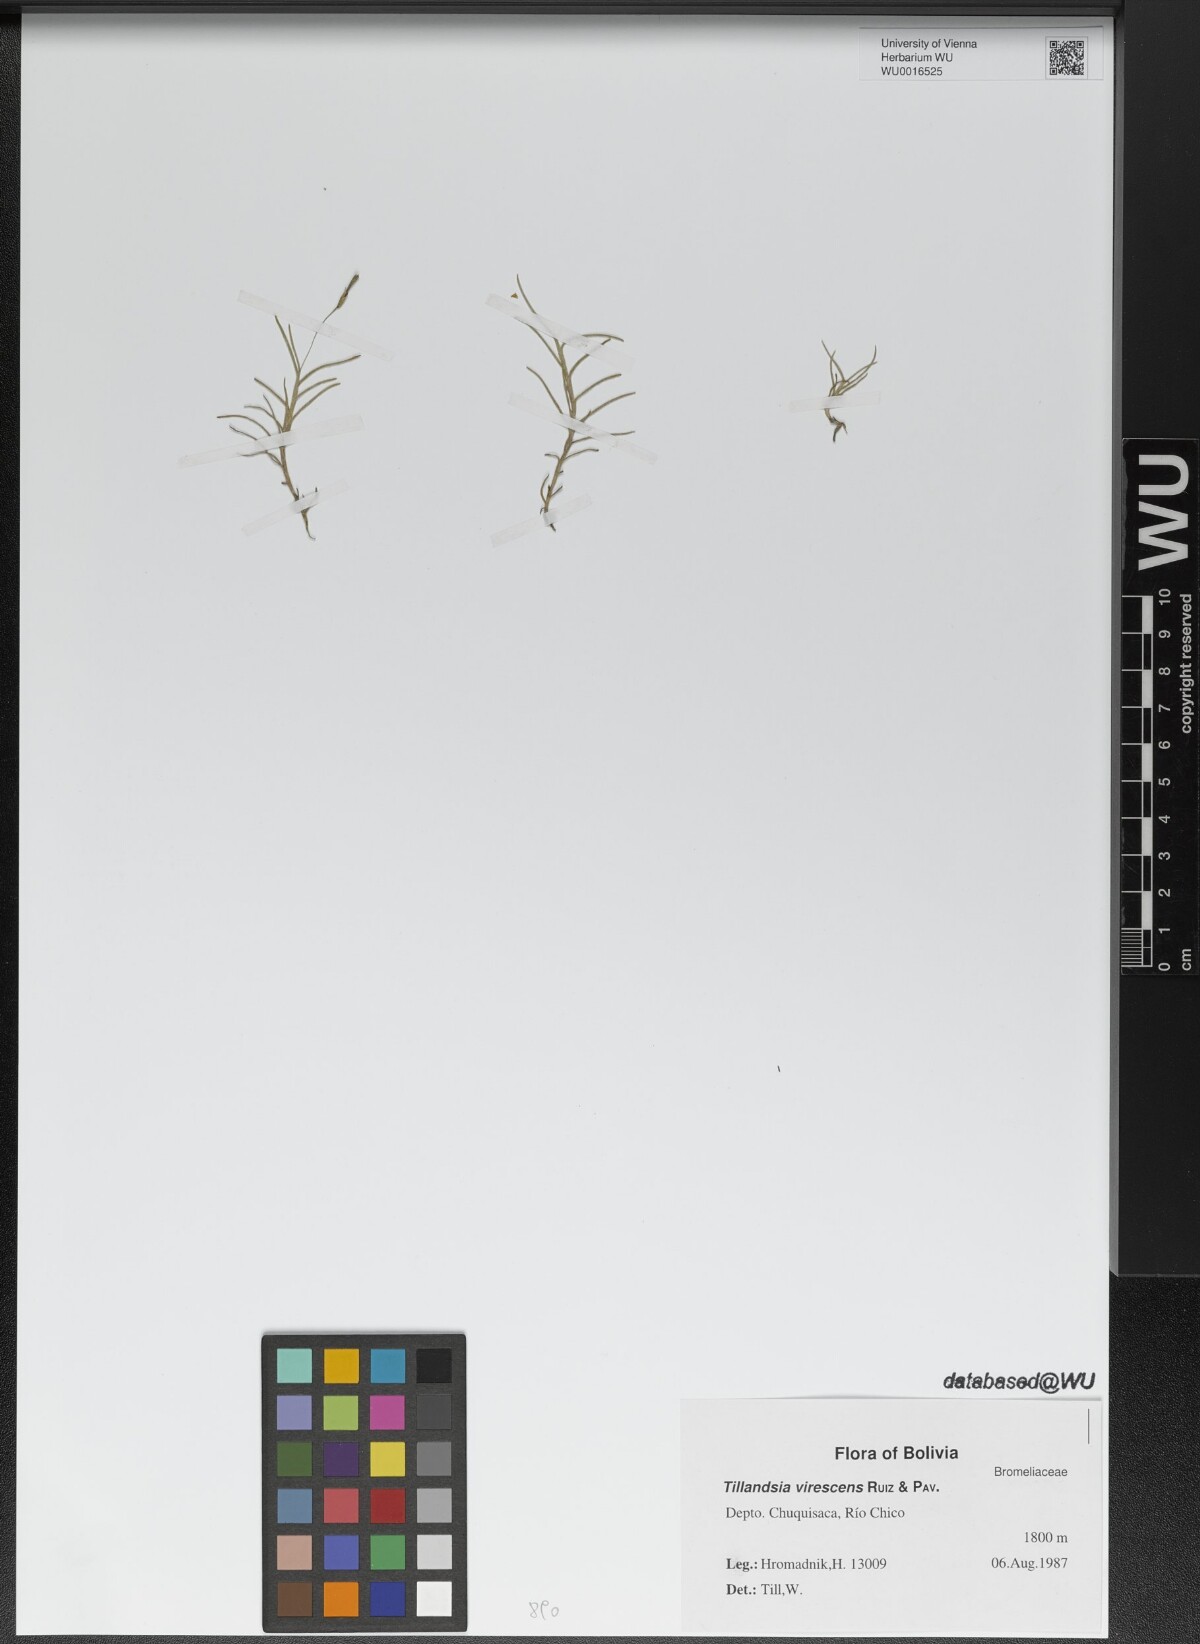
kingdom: Plantae
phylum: Tracheophyta
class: Liliopsida
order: Poales
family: Bromeliaceae
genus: Tillandsia
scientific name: Tillandsia virescens
